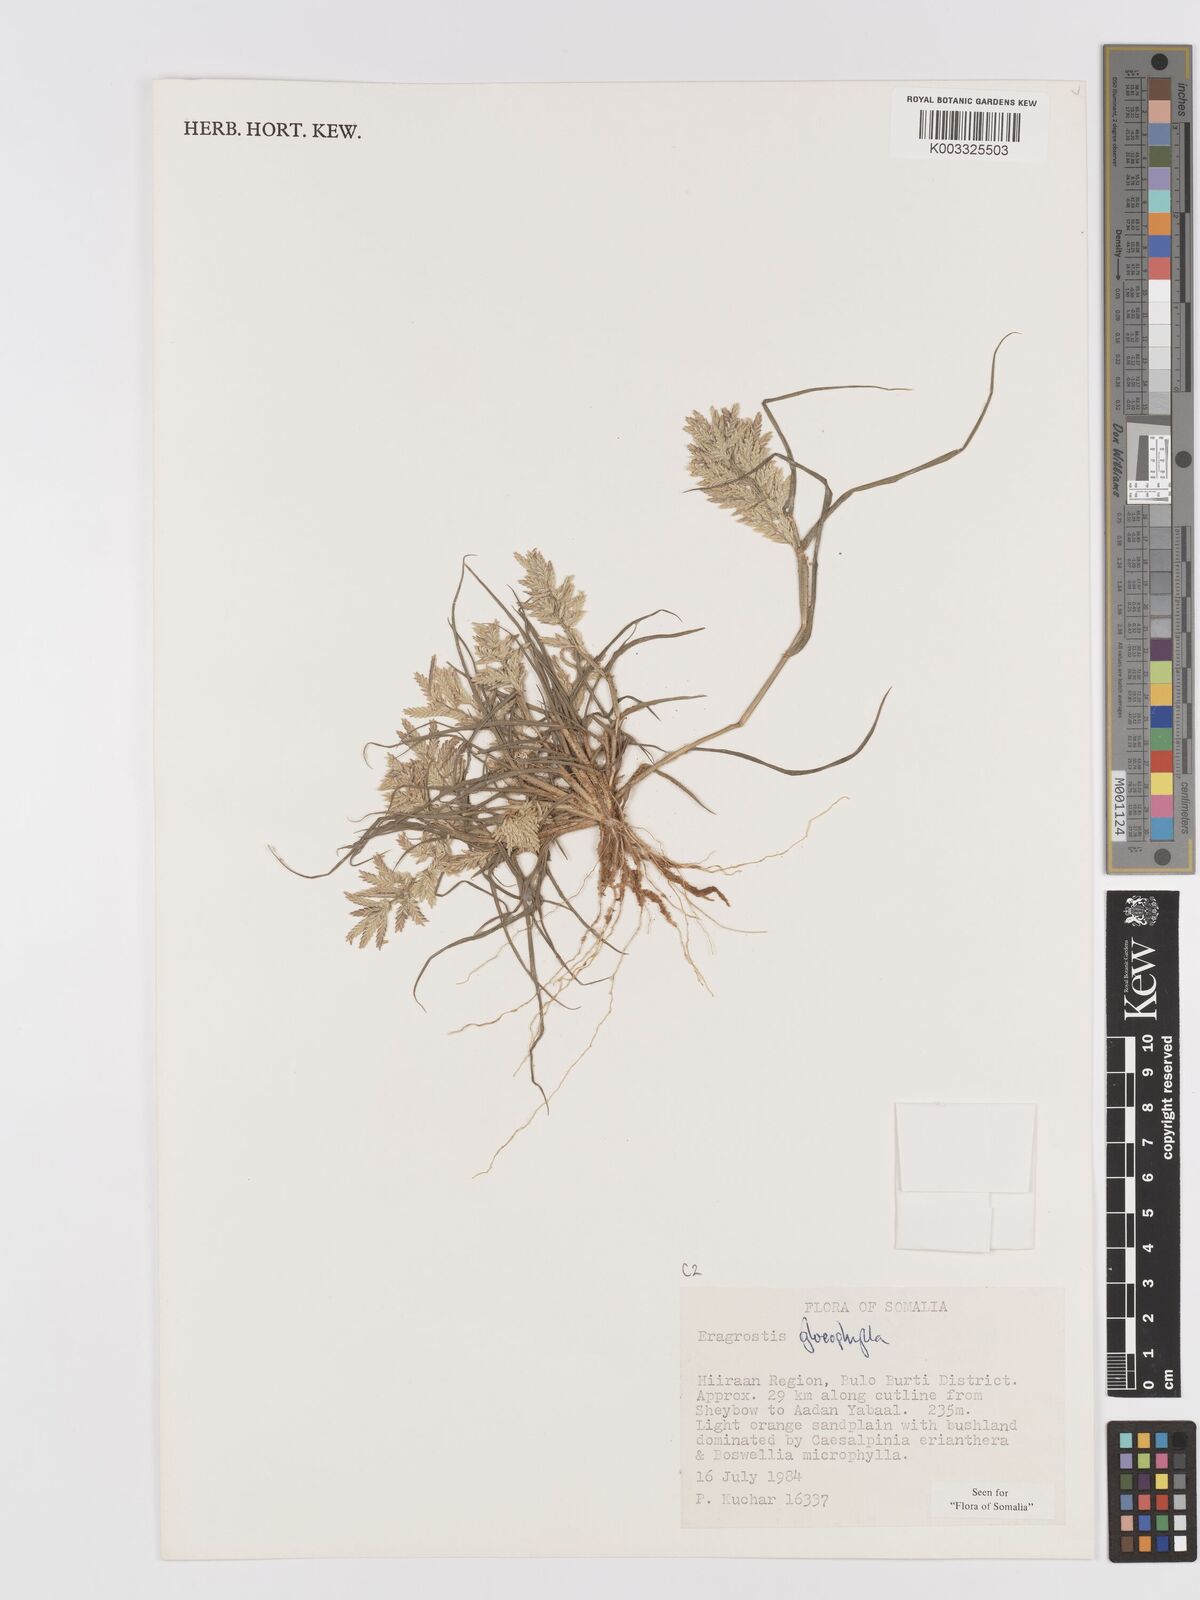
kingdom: Plantae
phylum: Tracheophyta
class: Liliopsida
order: Poales
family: Poaceae
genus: Eragrostis
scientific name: Eragrostis gloeophylla
